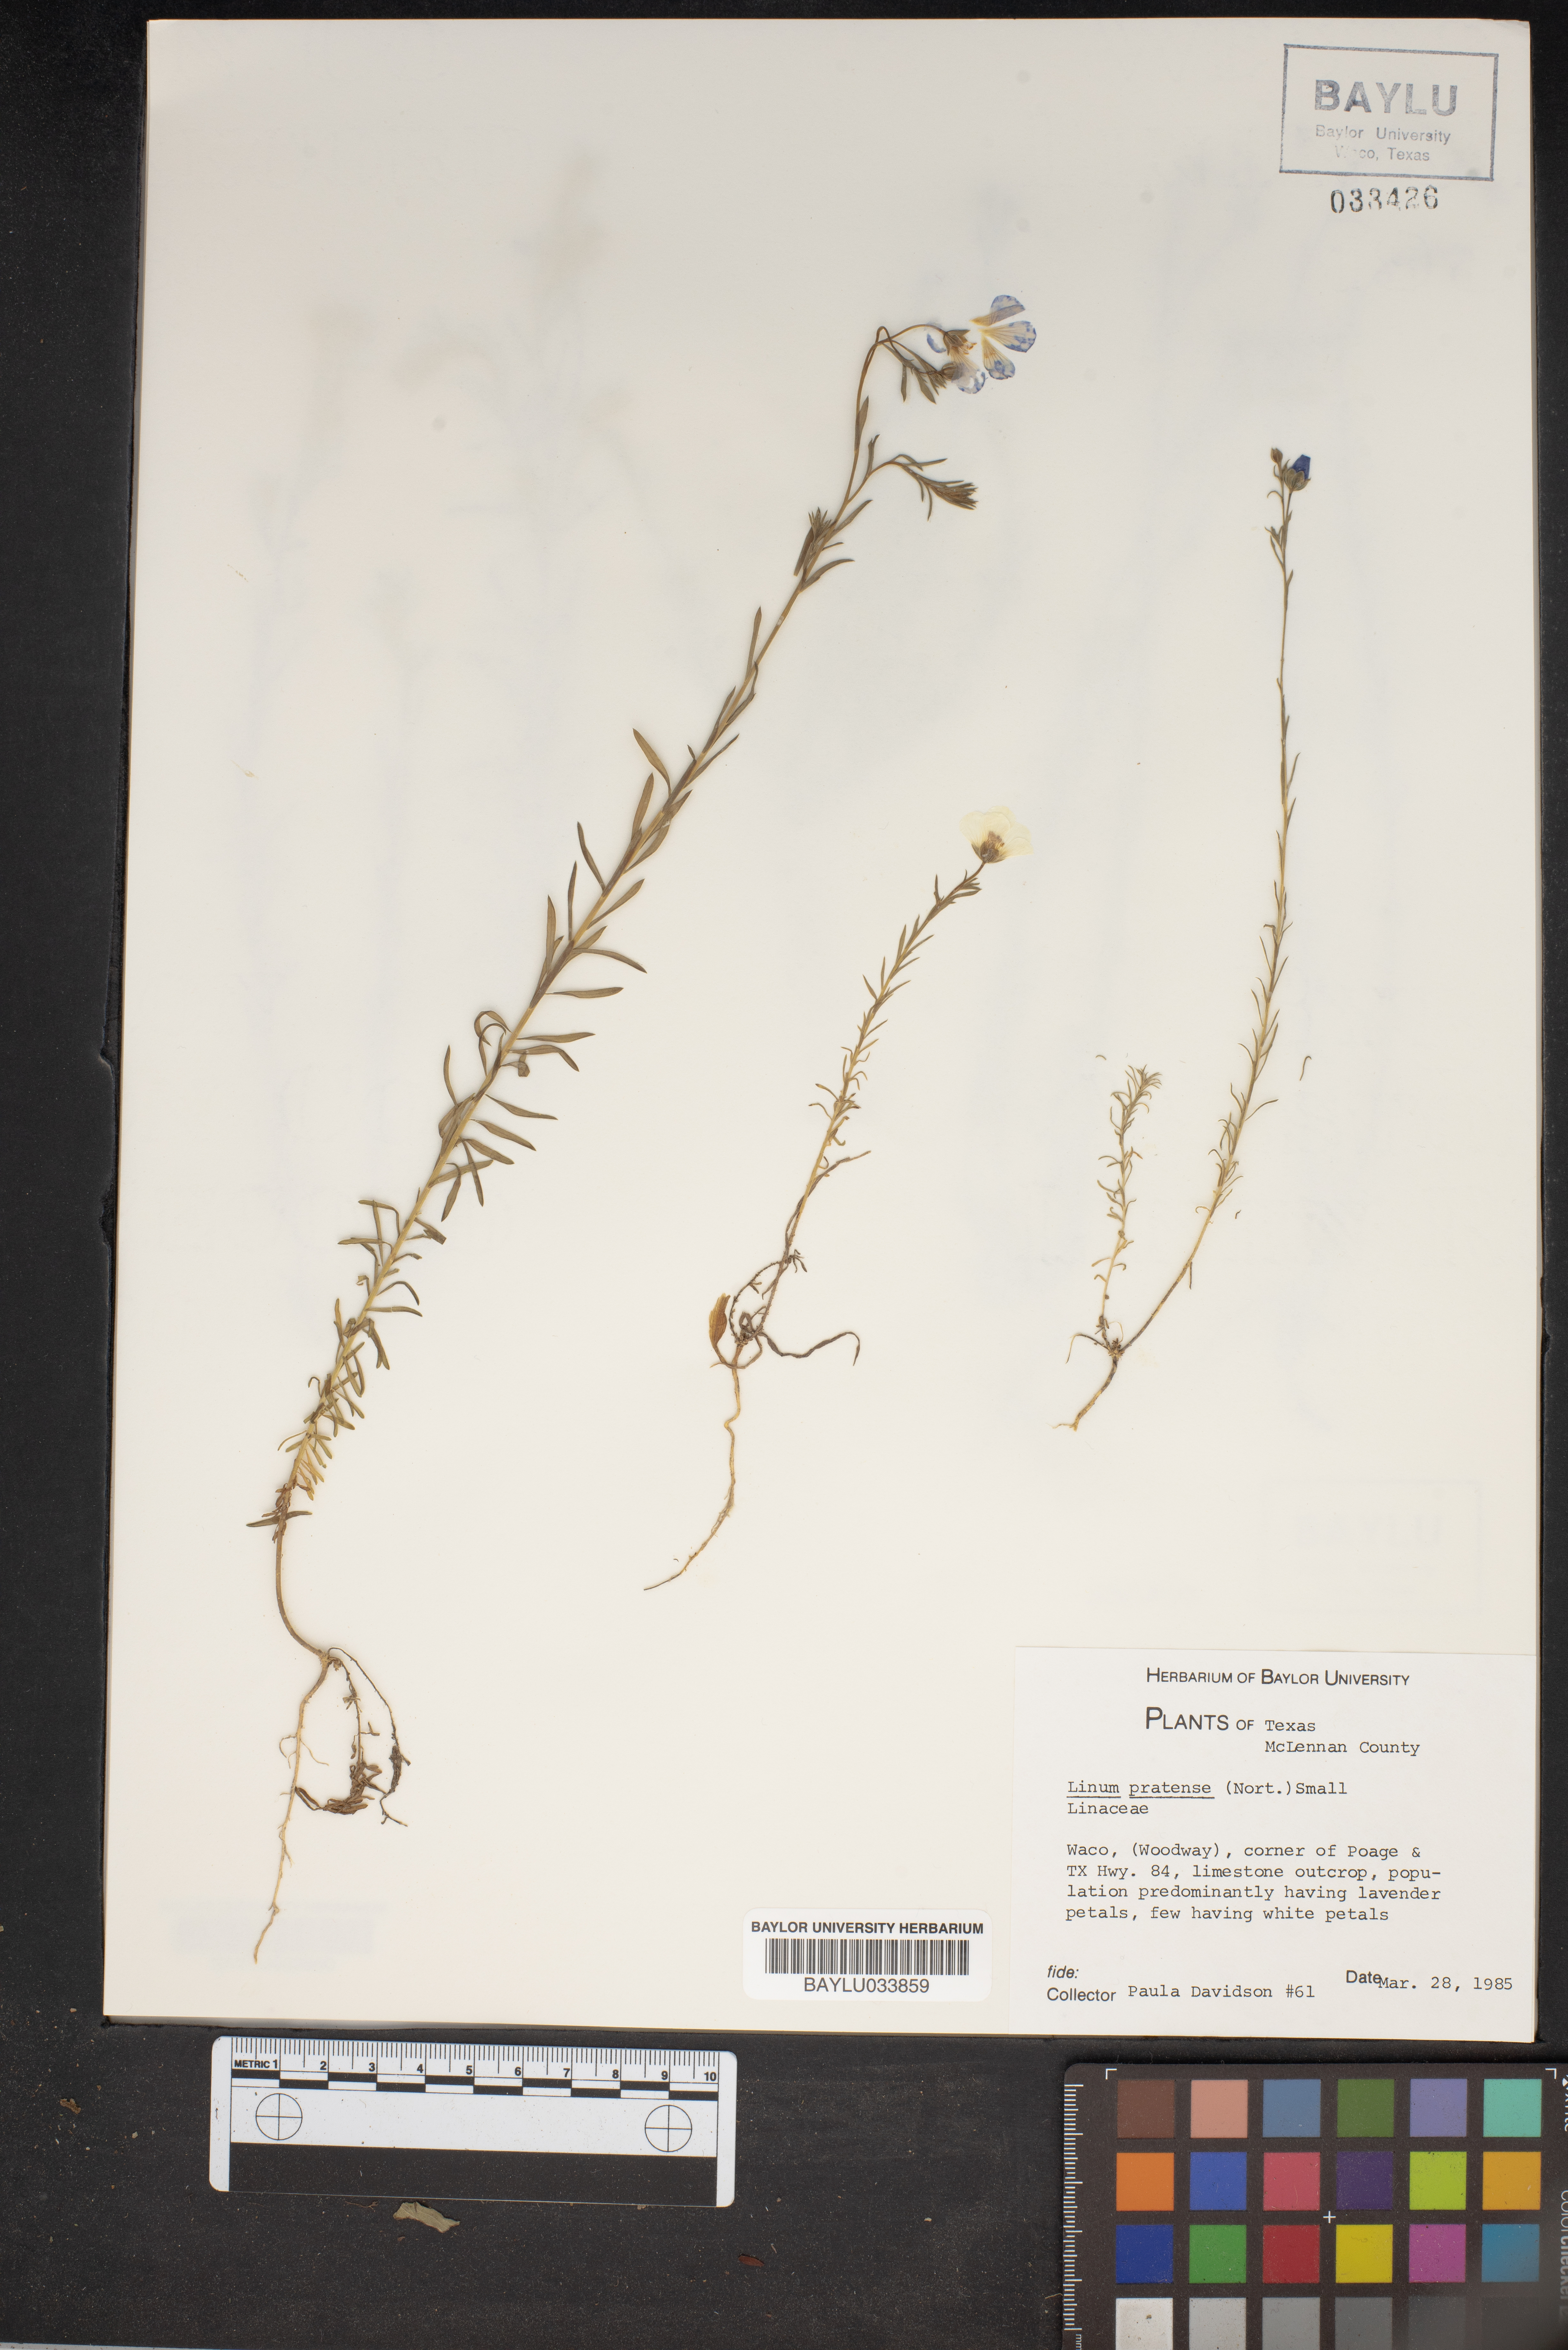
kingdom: Plantae
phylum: Tracheophyta
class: Magnoliopsida
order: Malpighiales
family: Linaceae
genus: Linum
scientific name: Linum pratense
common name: Norton's flax
